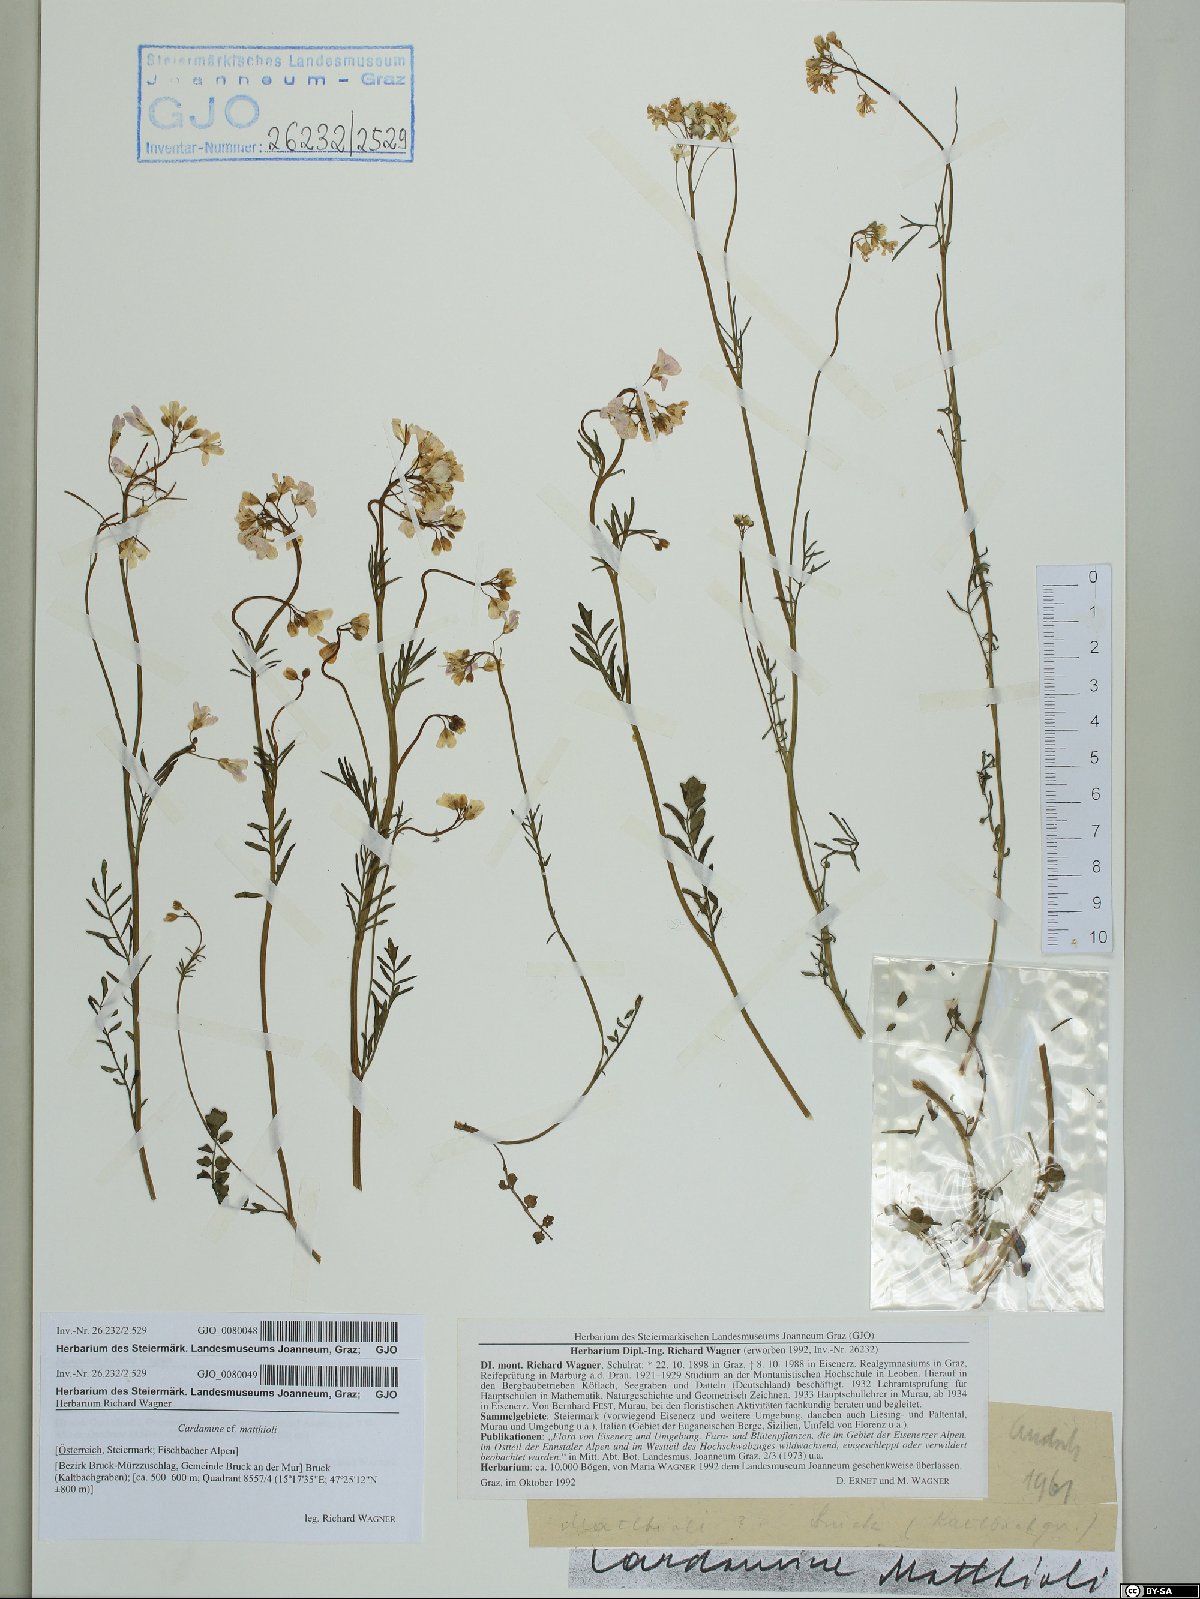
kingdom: Plantae
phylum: Tracheophyta
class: Magnoliopsida
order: Brassicales
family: Brassicaceae
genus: Cardamine
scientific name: Cardamine matthioli
